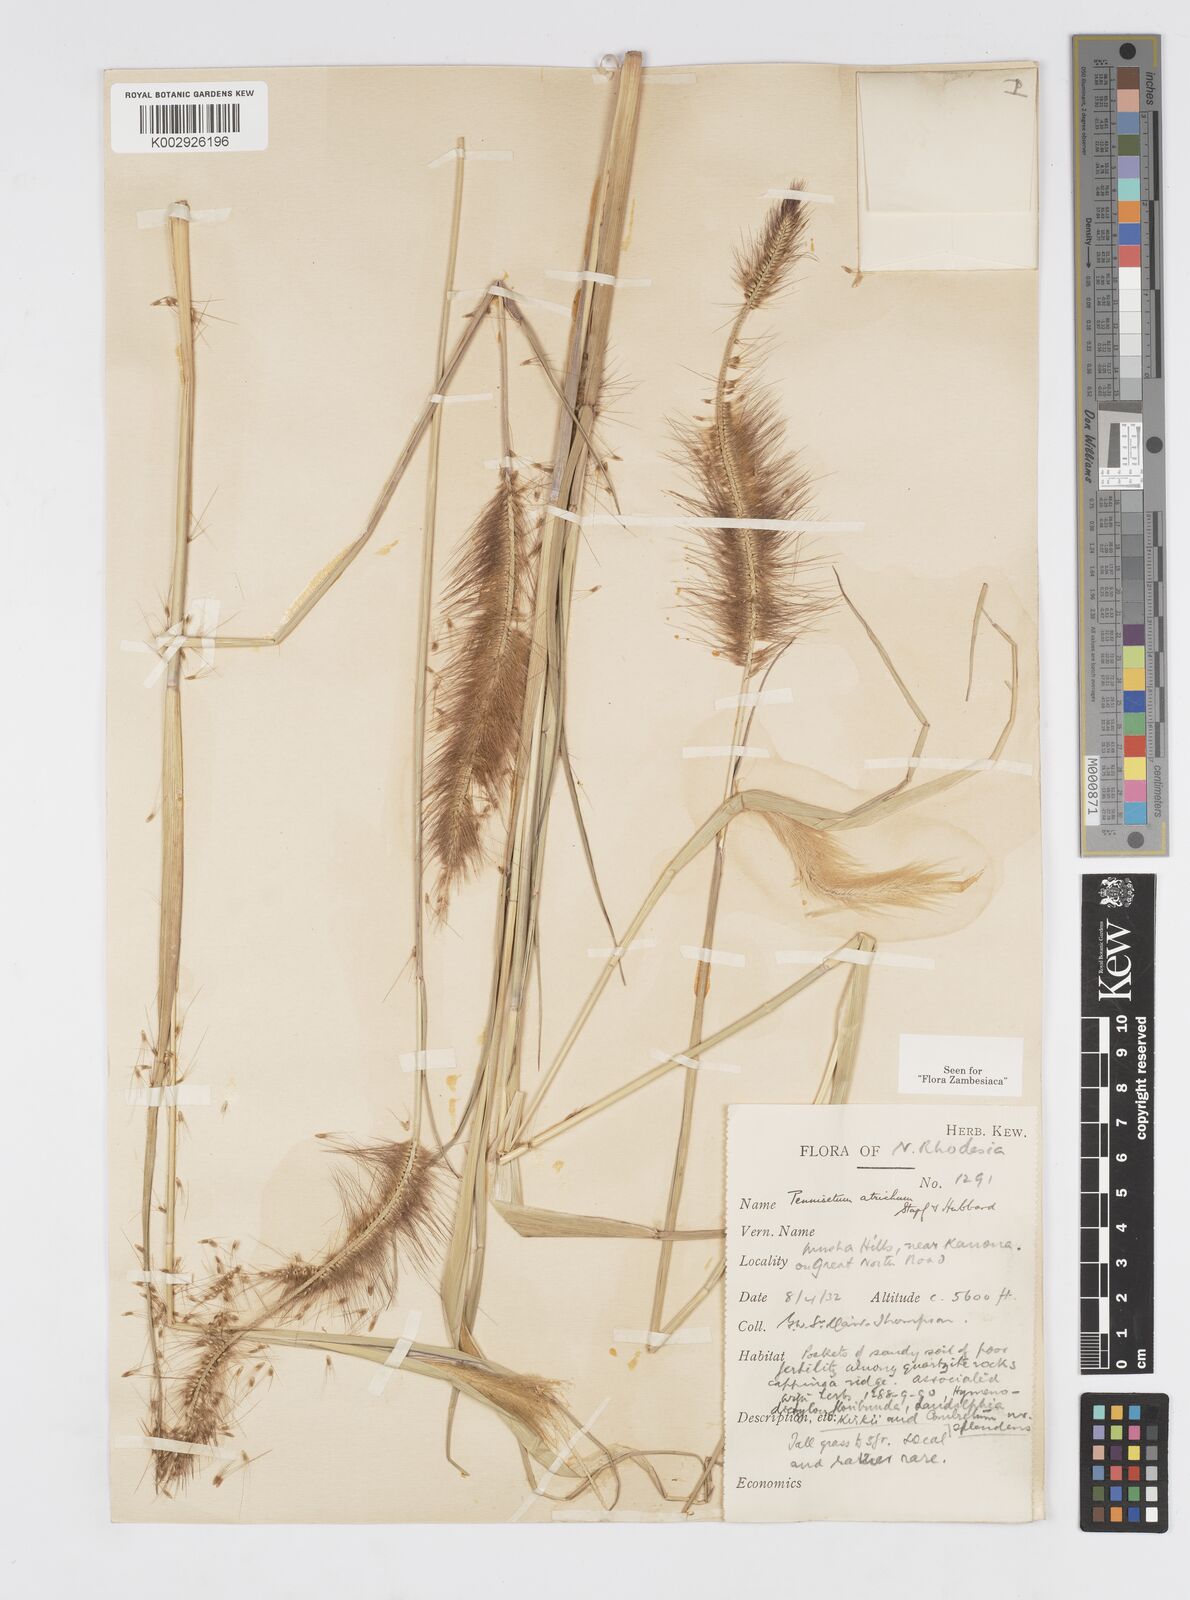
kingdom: Plantae
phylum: Tracheophyta
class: Liliopsida
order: Poales
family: Poaceae
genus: Cenchrus
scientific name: Cenchrus setosus
